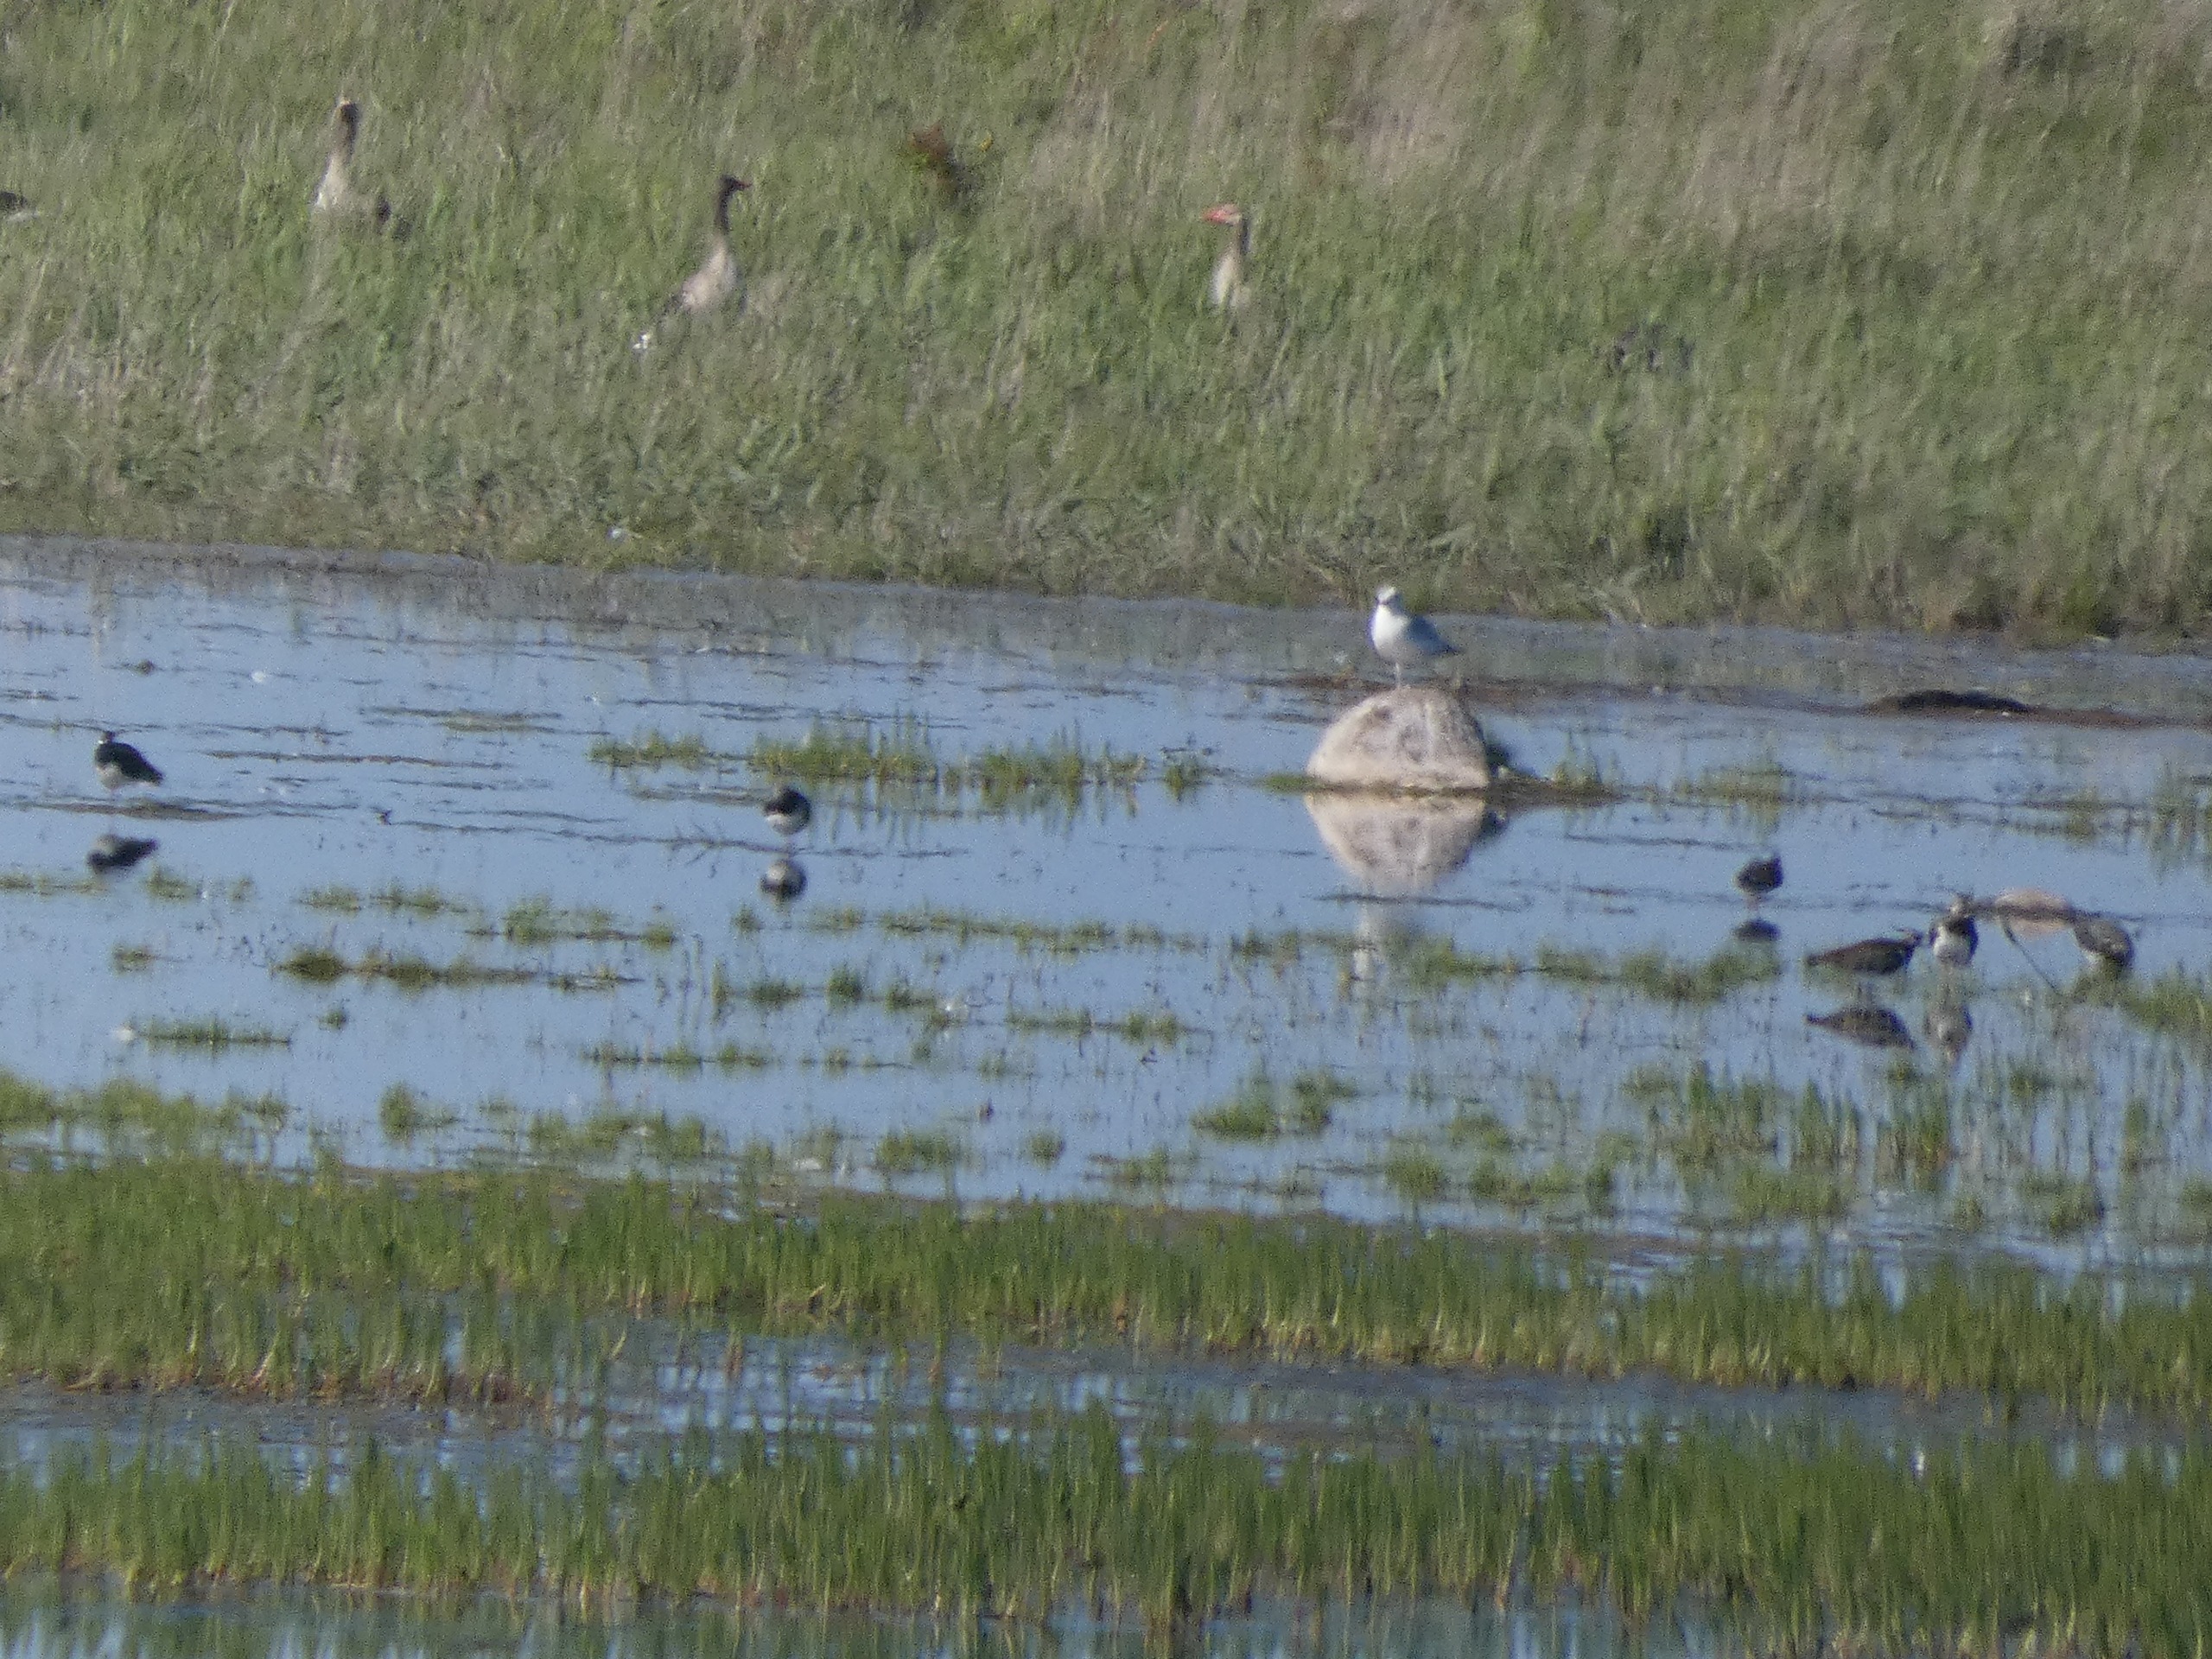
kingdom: Animalia
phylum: Chordata
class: Aves
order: Anseriformes
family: Anatidae
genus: Anser
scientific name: Anser anser
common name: Grågås
